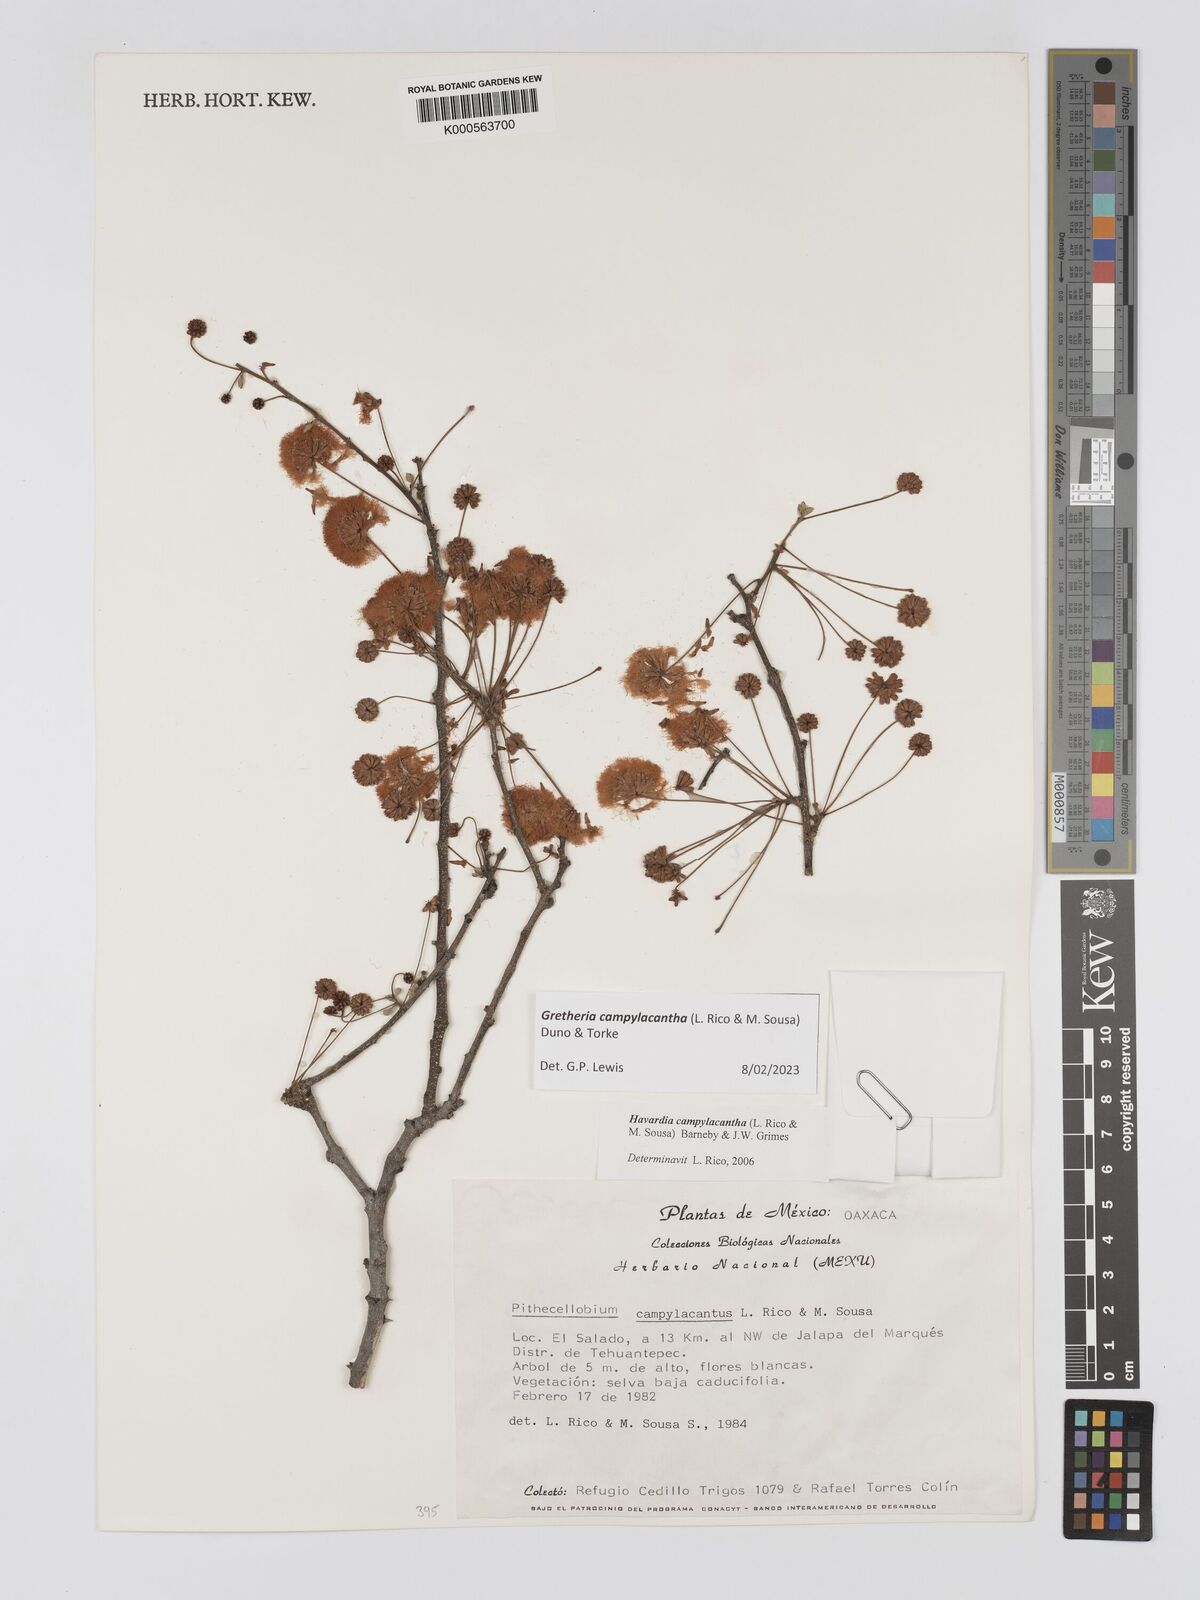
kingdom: Plantae
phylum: Tracheophyta
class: Magnoliopsida
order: Fabales
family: Fabaceae
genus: Havardia
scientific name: Havardia campylacantha
